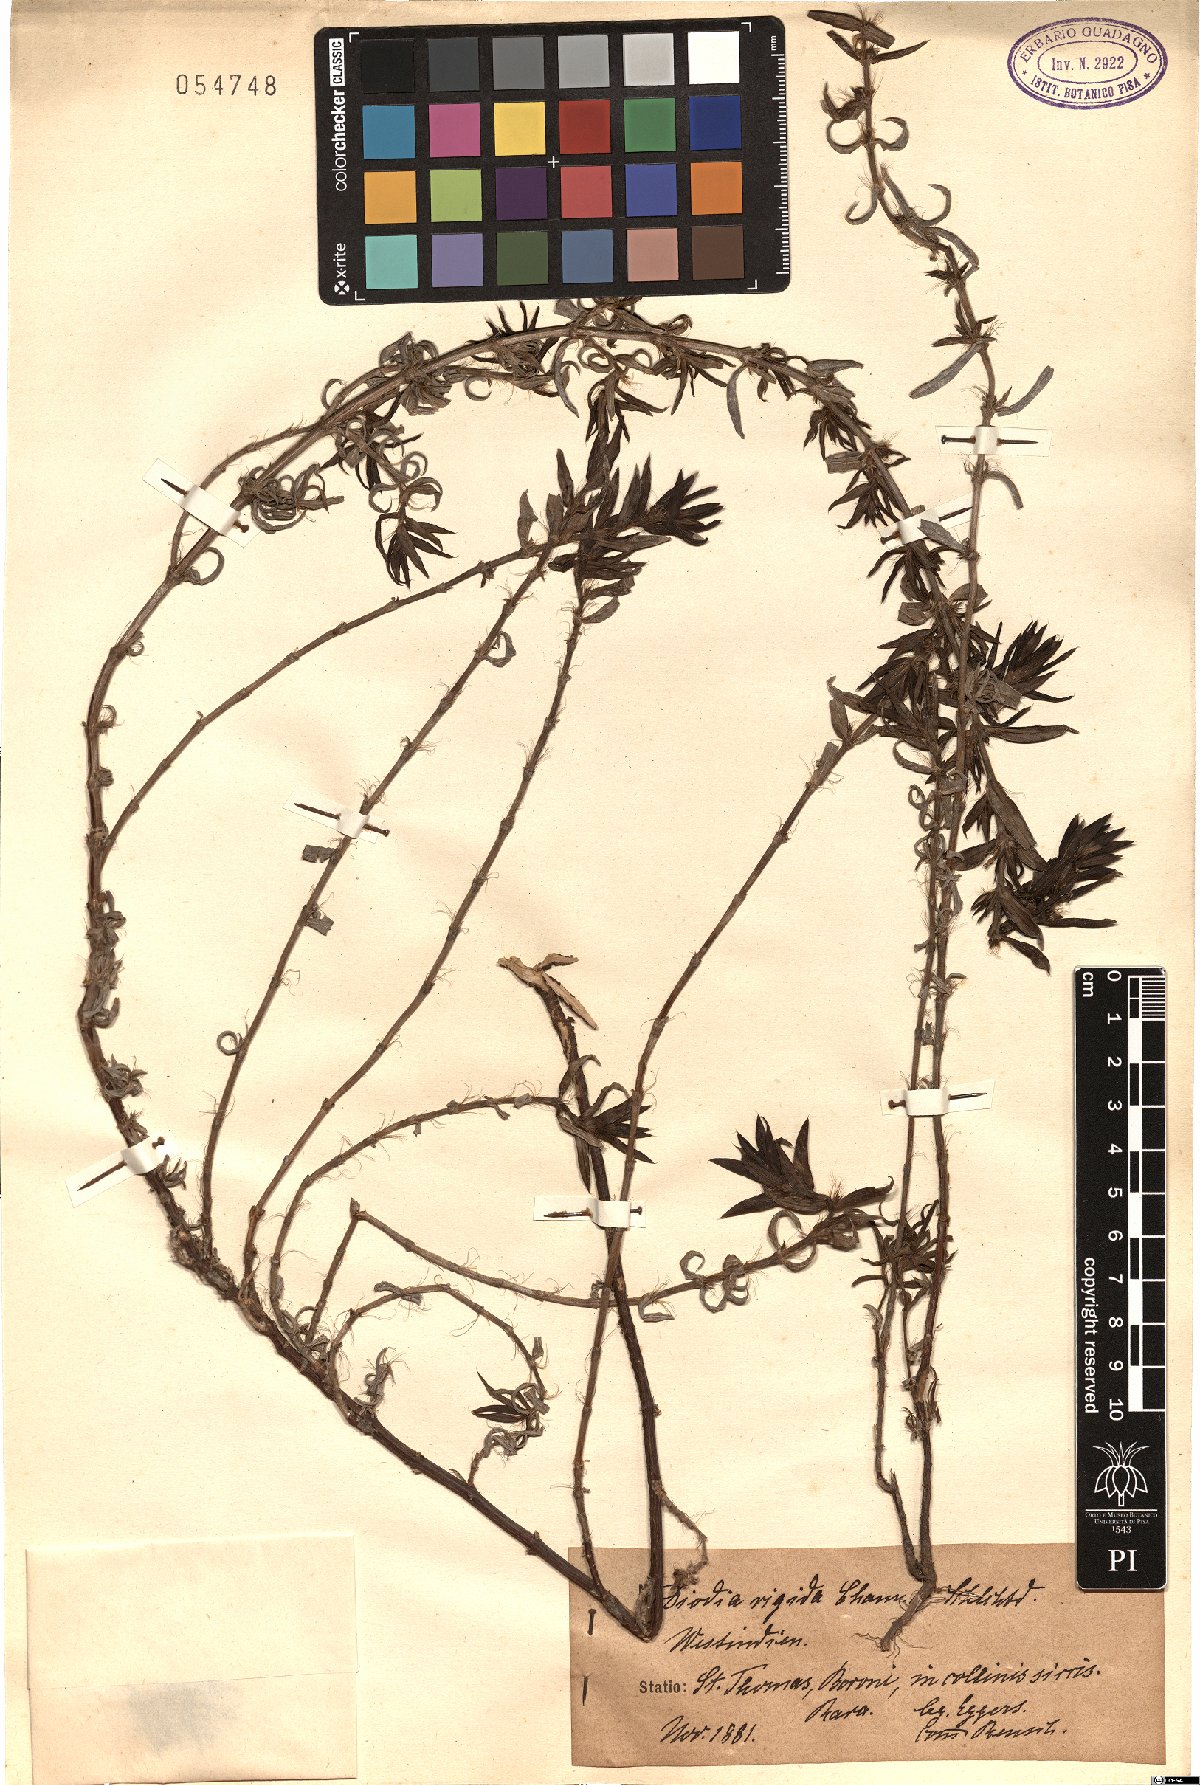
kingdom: Plantae
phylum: Tracheophyta
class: Magnoliopsida
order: Gentianales
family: Rubiaceae
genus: Hexasepalum
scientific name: Hexasepalum apiculatum
